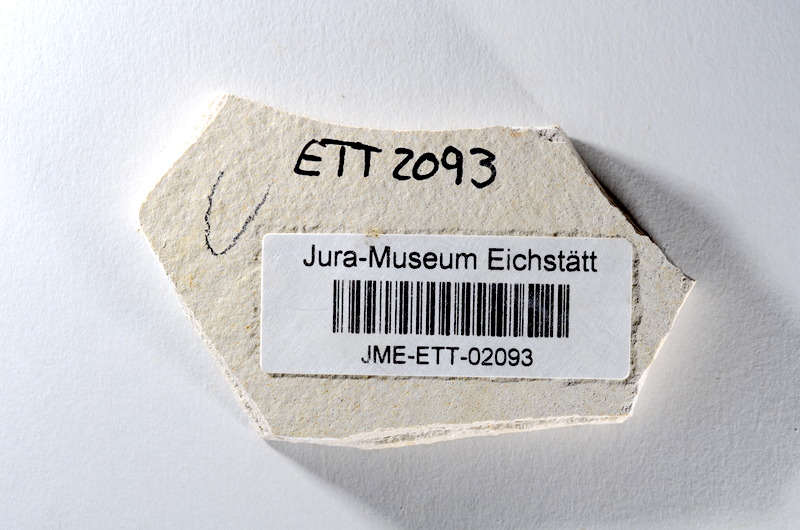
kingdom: Animalia
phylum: Chordata
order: Salmoniformes
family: Orthogonikleithridae
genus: Orthogonikleithrus
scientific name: Orthogonikleithrus hoelli
